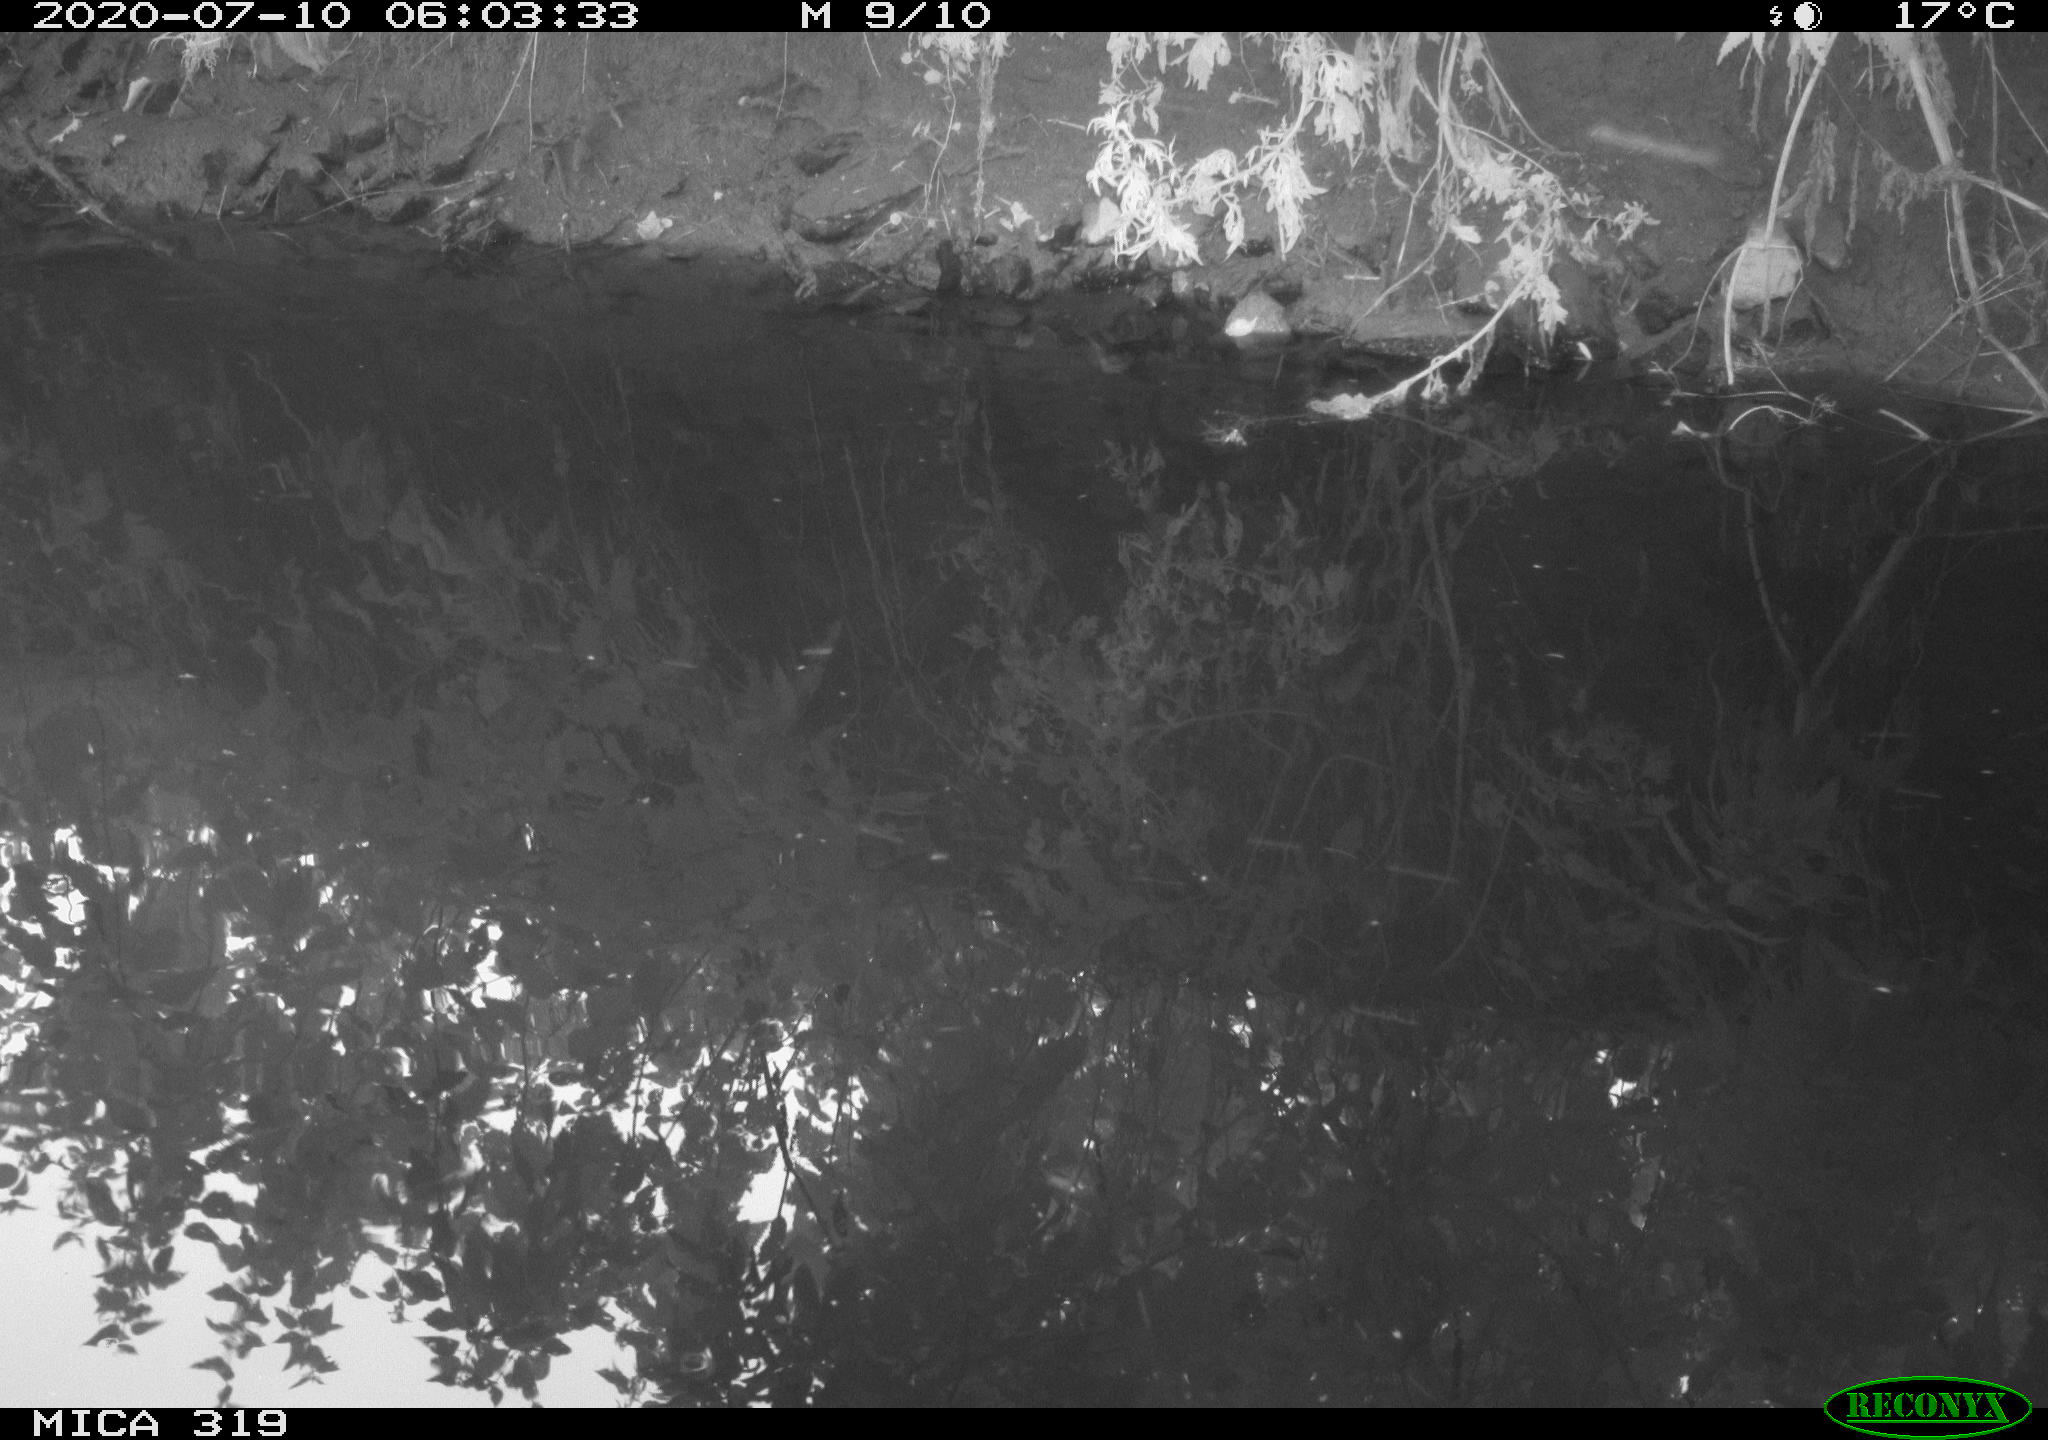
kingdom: Animalia
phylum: Chordata
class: Aves
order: Gruiformes
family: Rallidae
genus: Fulica
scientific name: Fulica atra
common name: Eurasian coot
